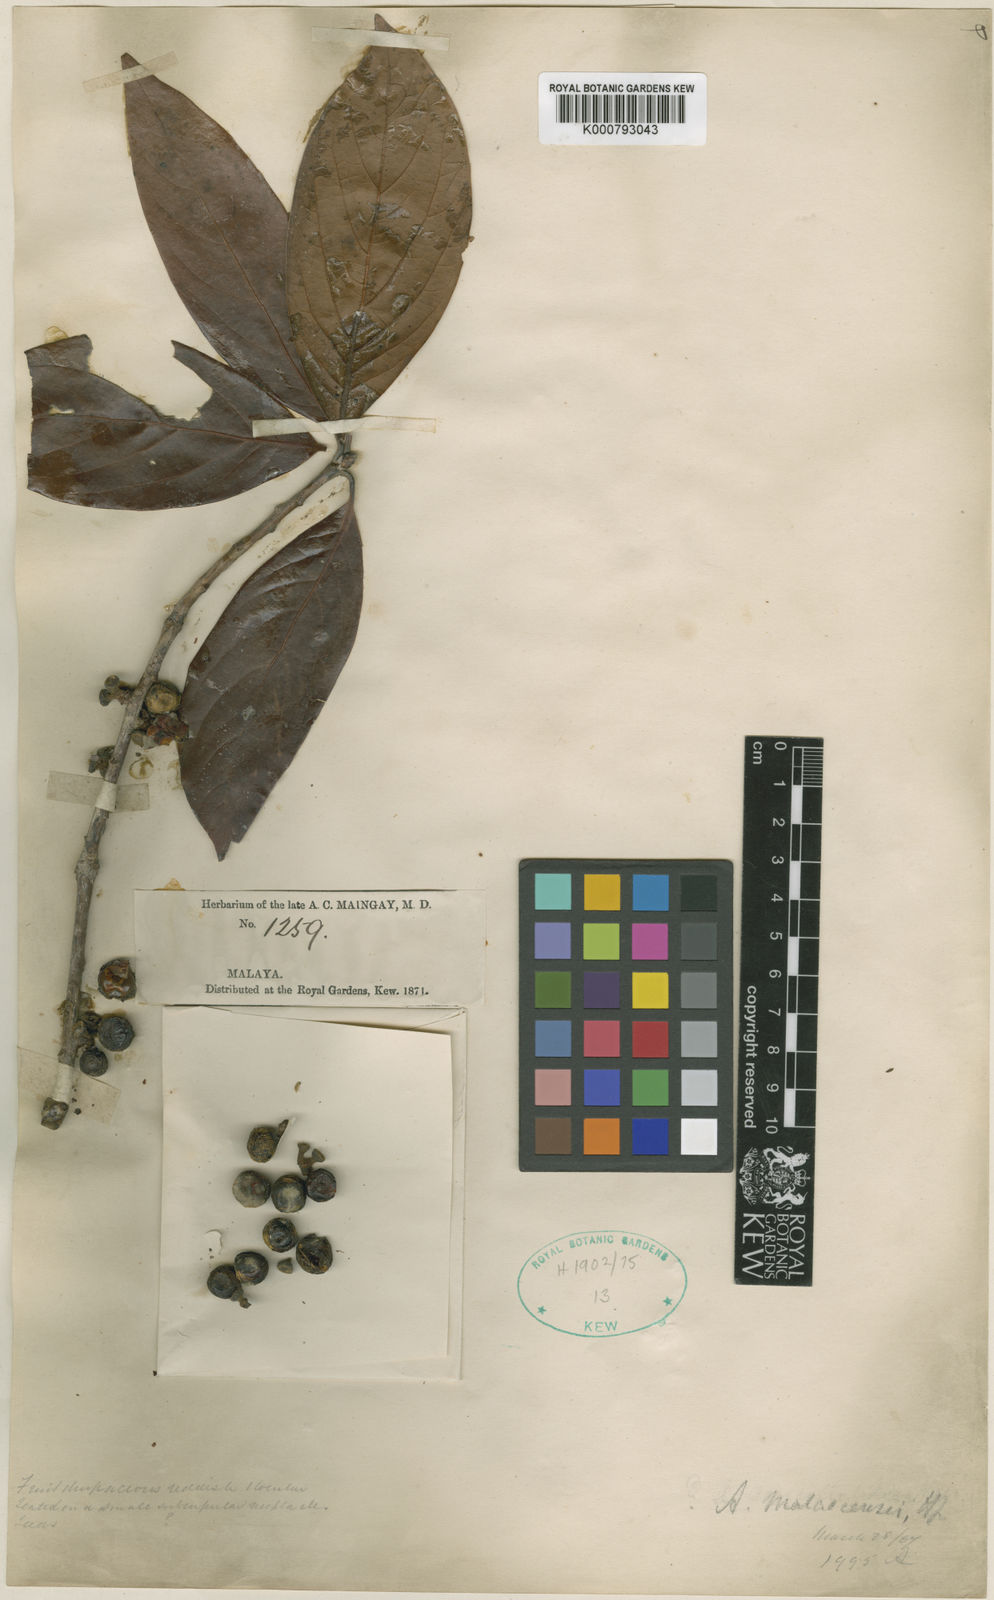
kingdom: Plantae
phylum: Tracheophyta
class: Magnoliopsida
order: Laurales
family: Lauraceae
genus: Actinodaphne
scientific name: Actinodaphne malaccensis
